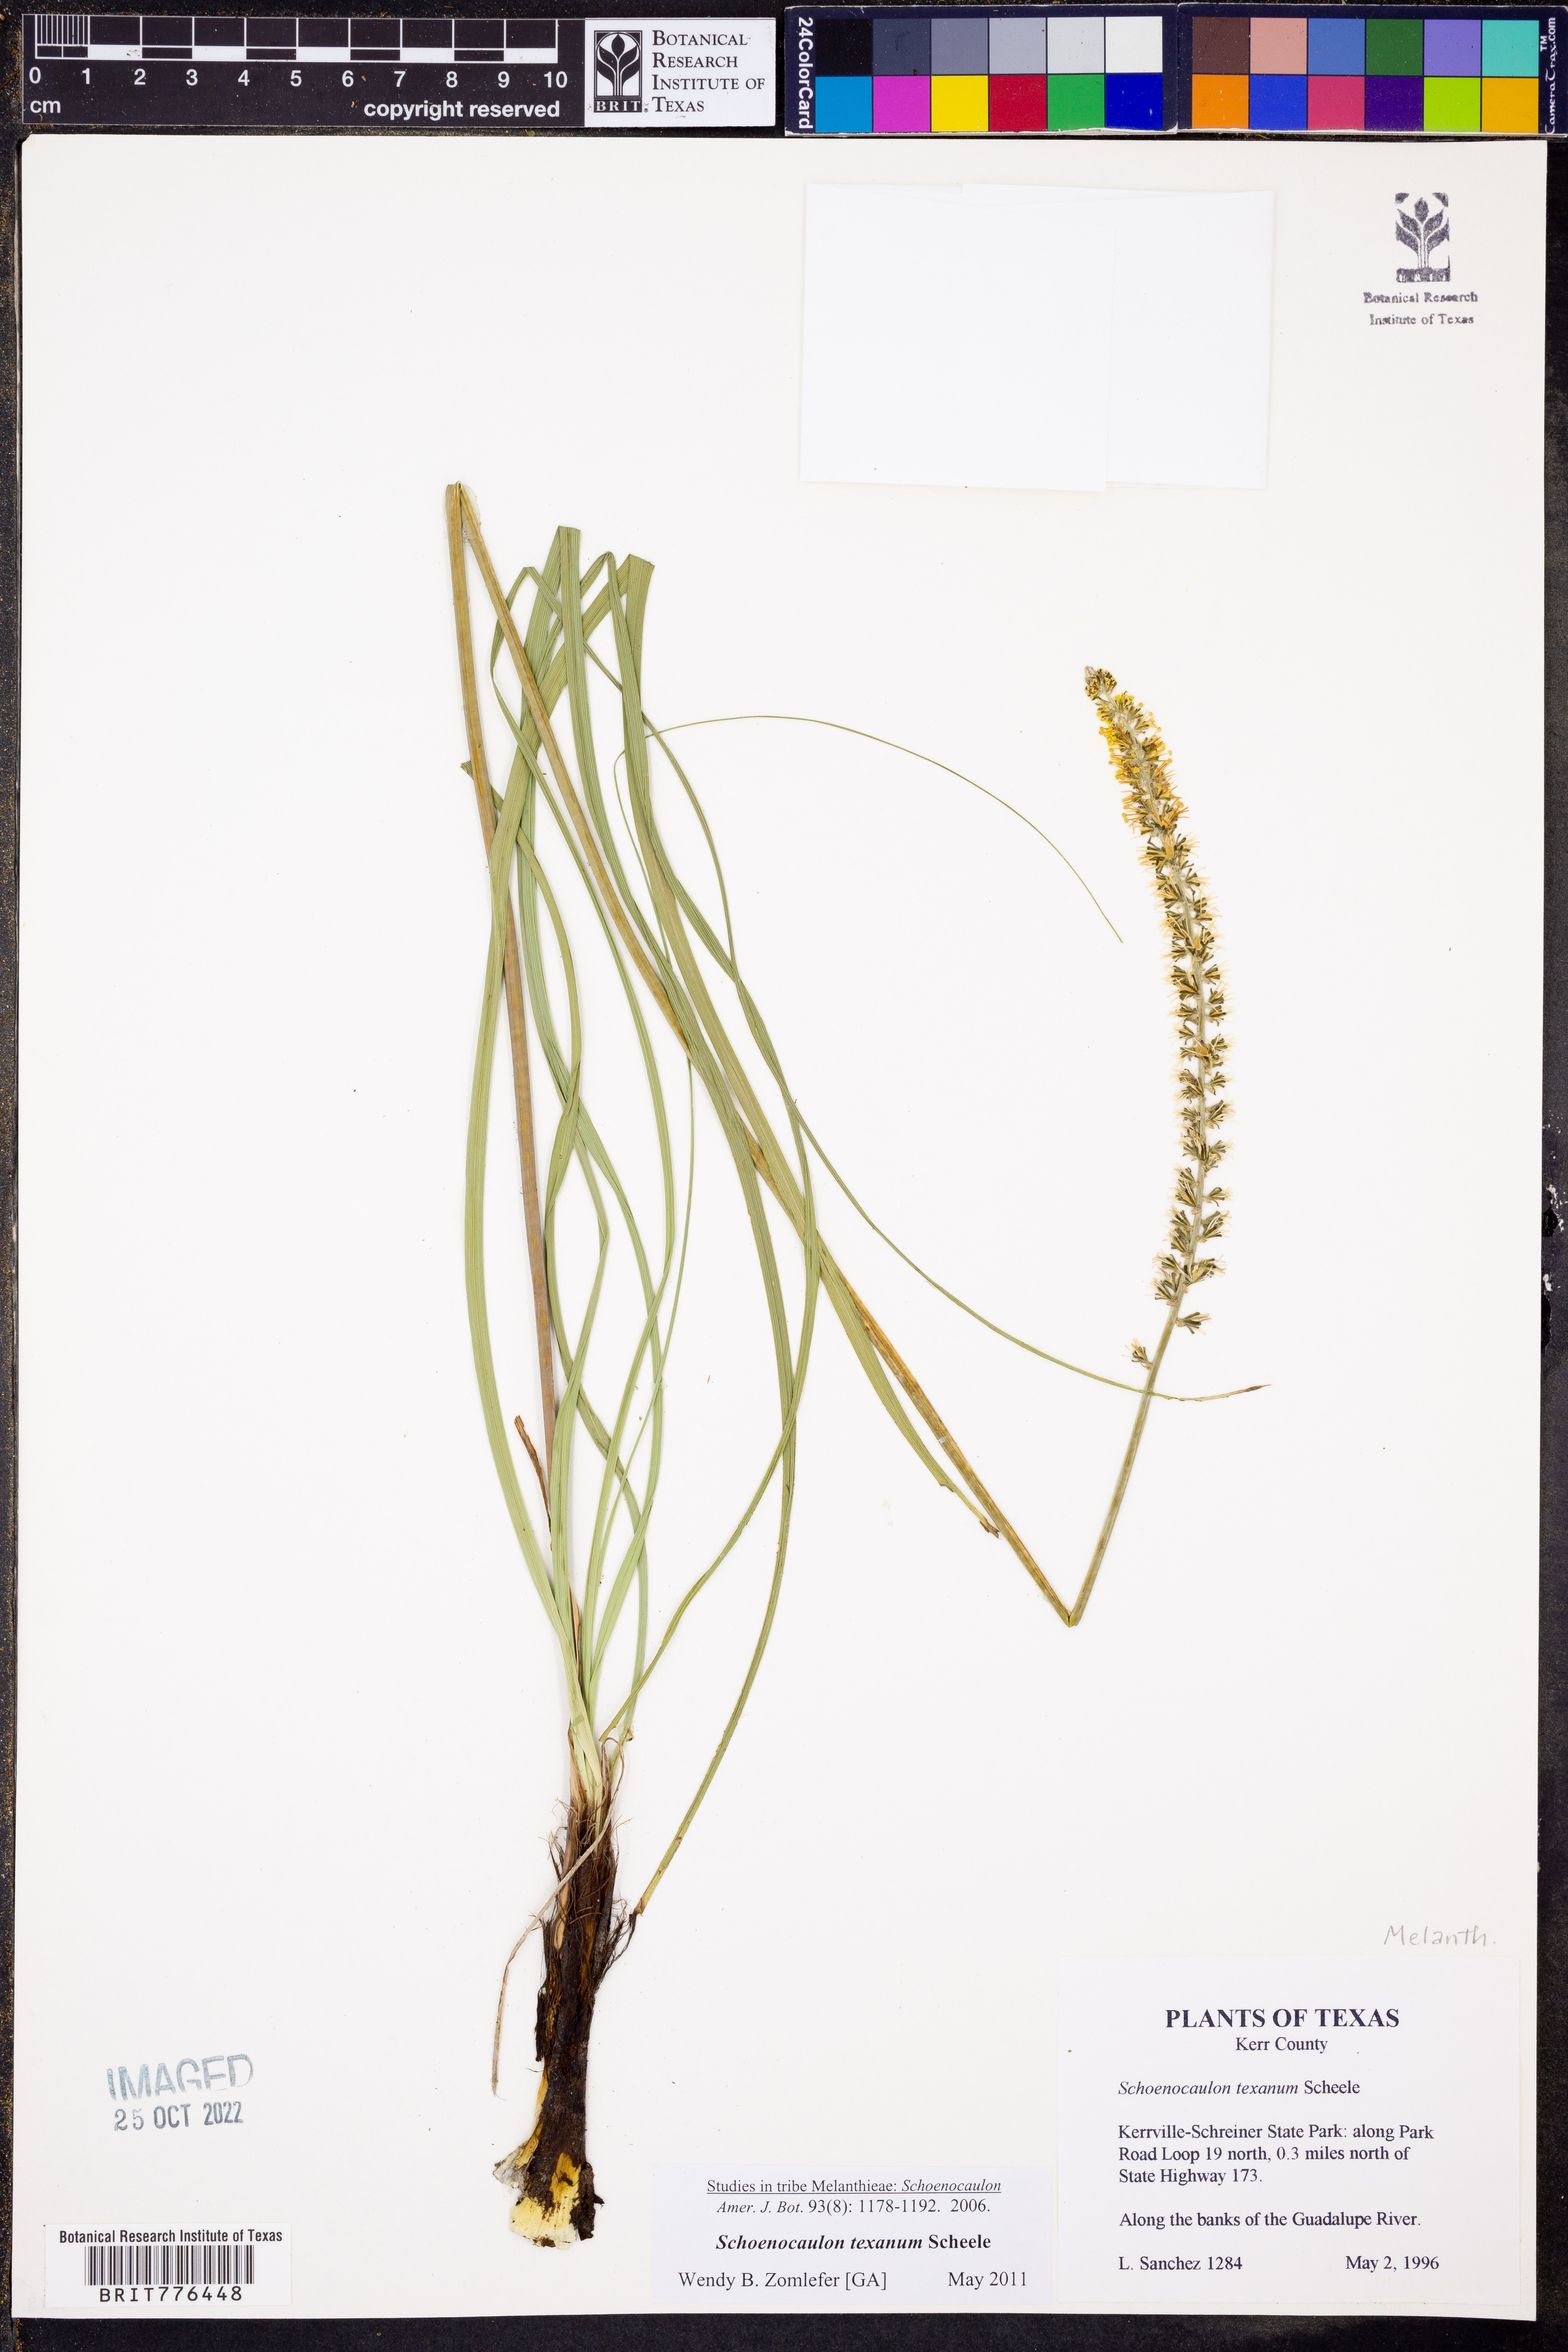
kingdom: Plantae
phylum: Tracheophyta
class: Liliopsida
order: Liliales
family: Melanthiaceae
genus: Schoenocaulon
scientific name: Schoenocaulon texanum
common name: Texas feather-shank
